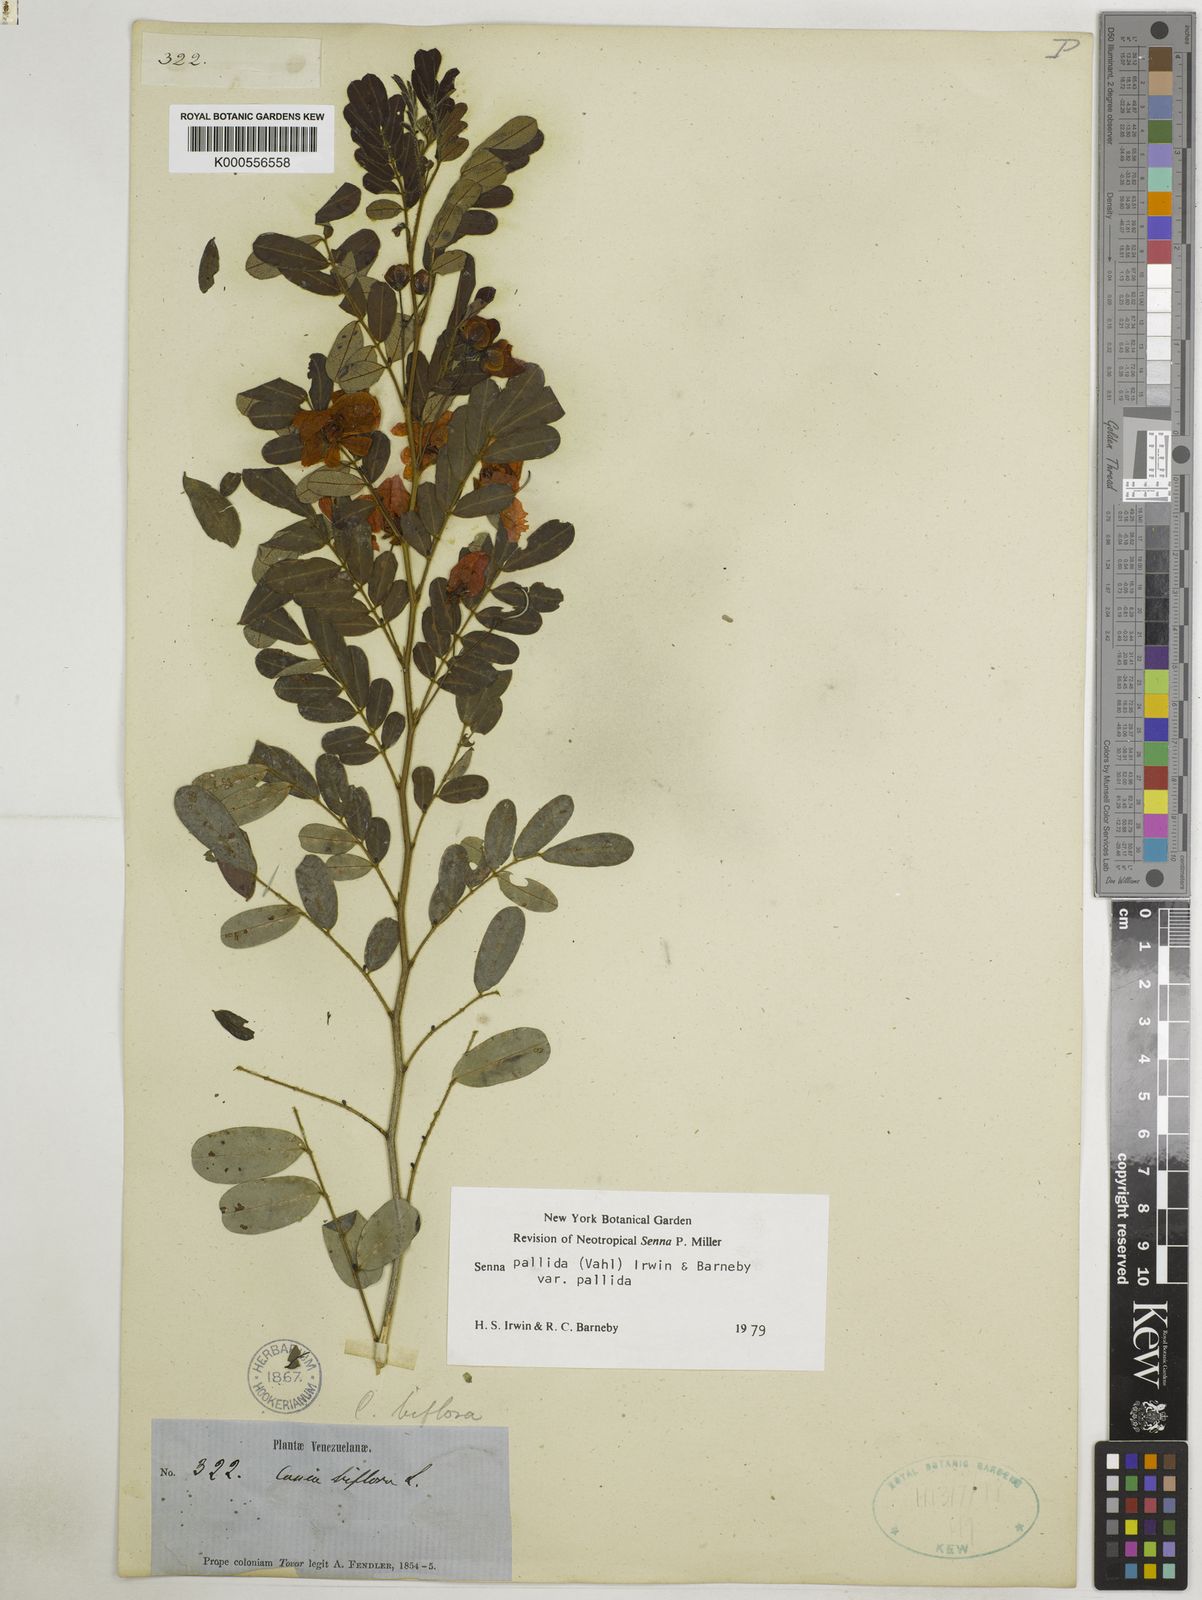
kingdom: Plantae
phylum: Tracheophyta
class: Magnoliopsida
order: Fabales
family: Fabaceae
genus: Senna
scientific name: Senna pallida
